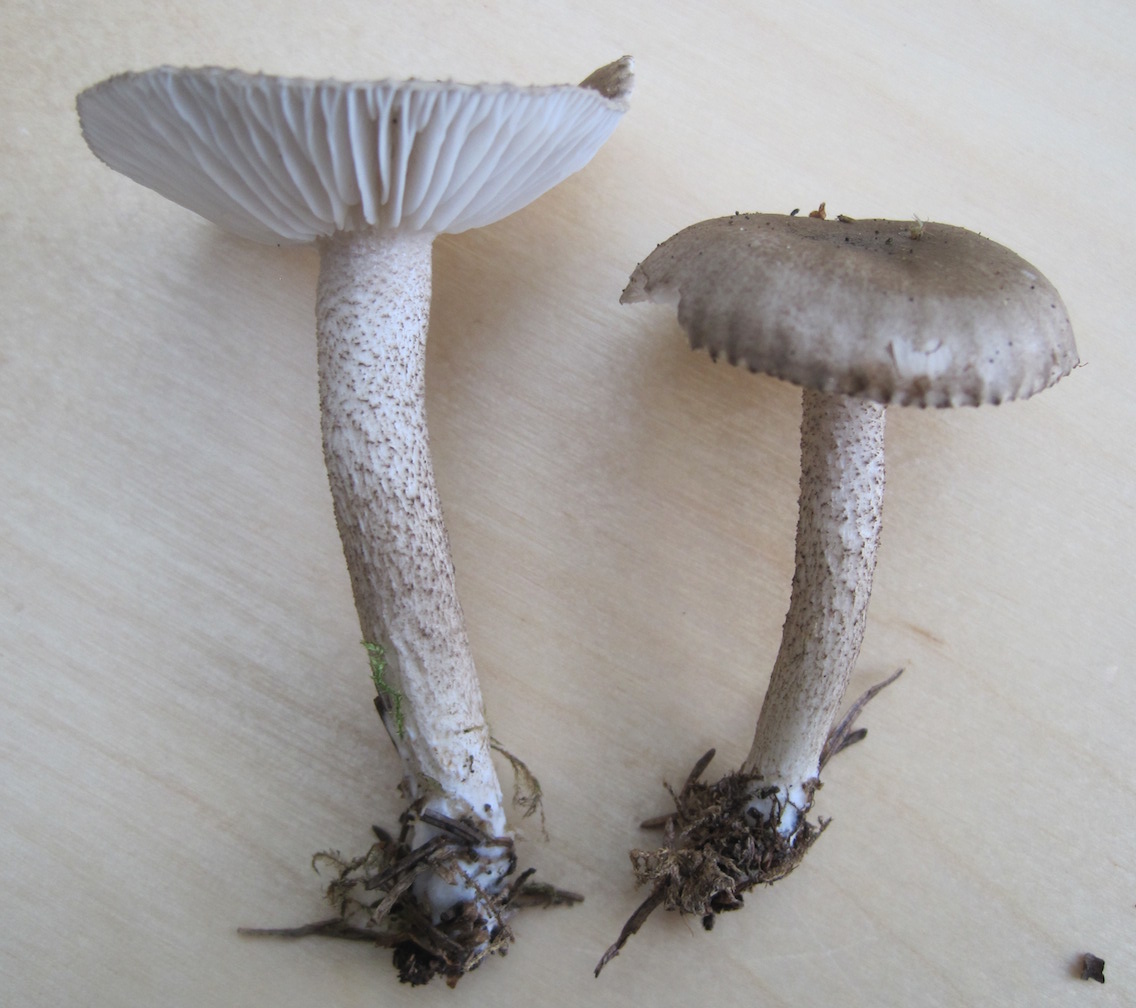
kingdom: Fungi
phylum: Basidiomycota
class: Agaricomycetes
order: Agaricales
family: Hygrophoraceae
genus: Hygrophorus
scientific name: Hygrophorus pustulatus
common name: mørkprikket sneglehat
